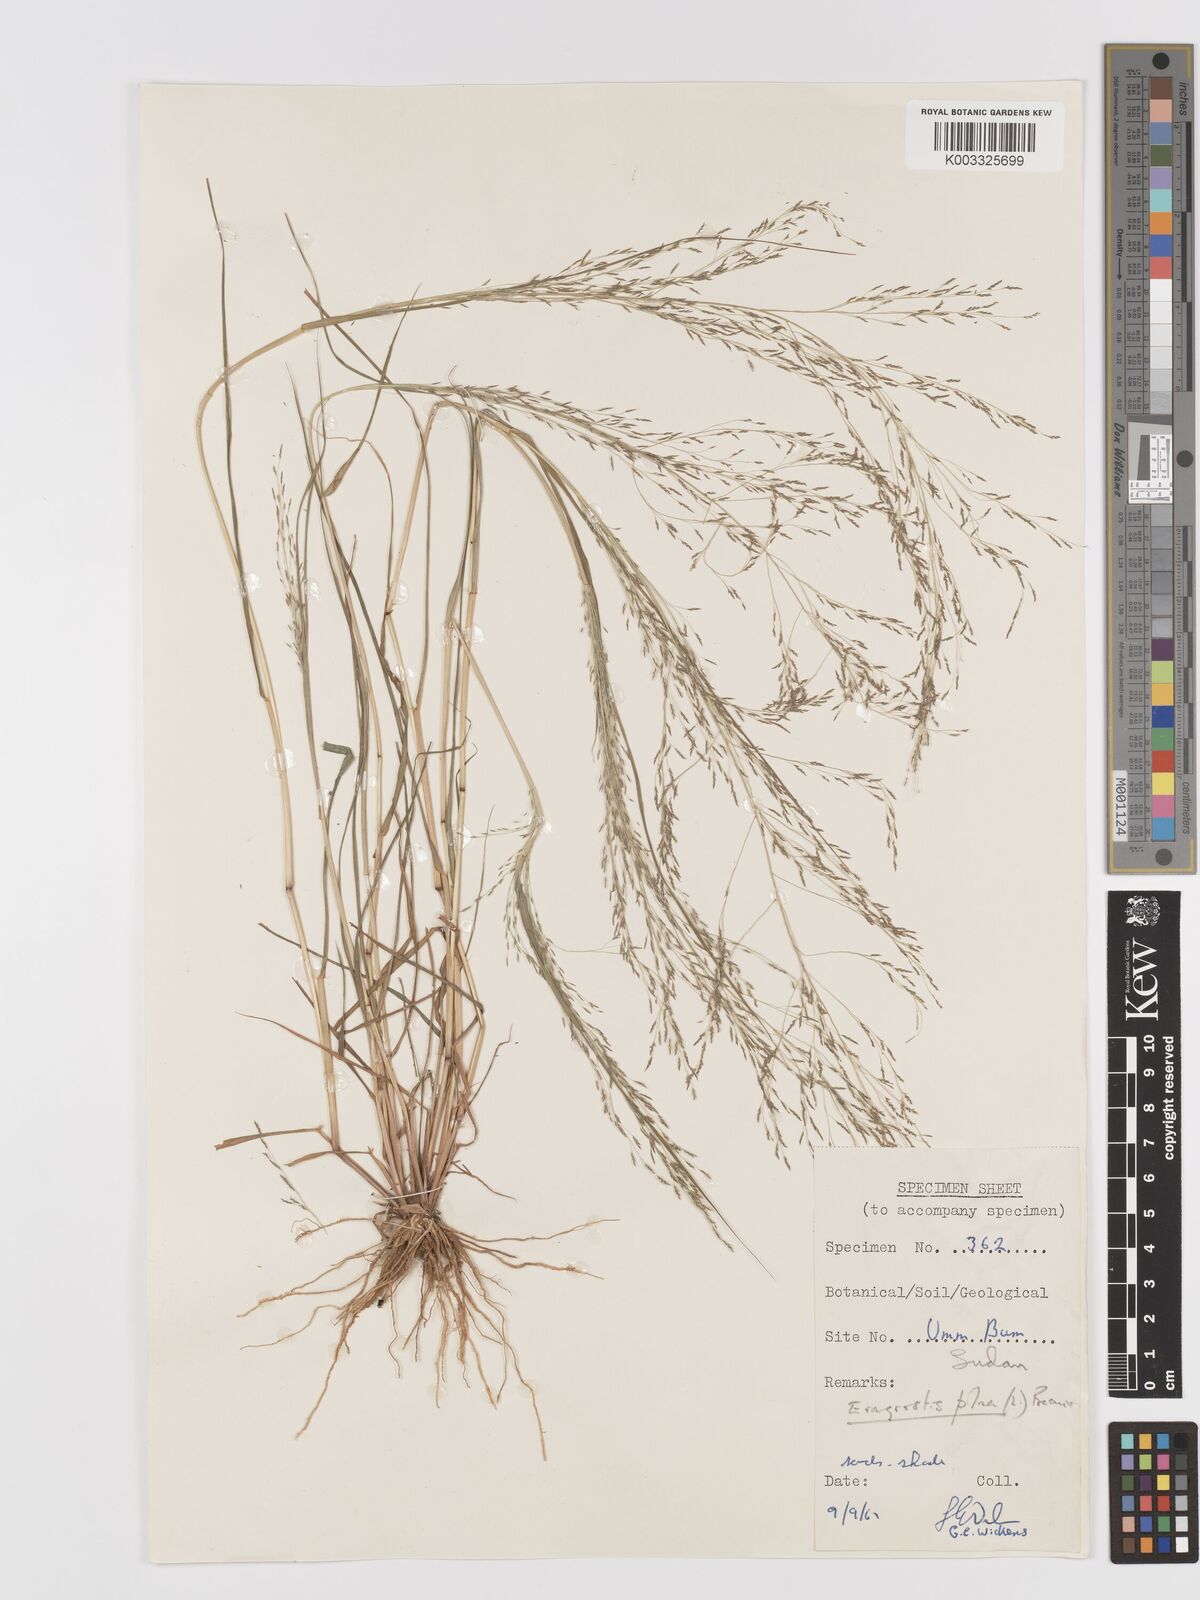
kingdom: Plantae
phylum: Tracheophyta
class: Liliopsida
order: Poales
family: Poaceae
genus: Eragrostis
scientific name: Eragrostis pilosa
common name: Indian lovegrass
